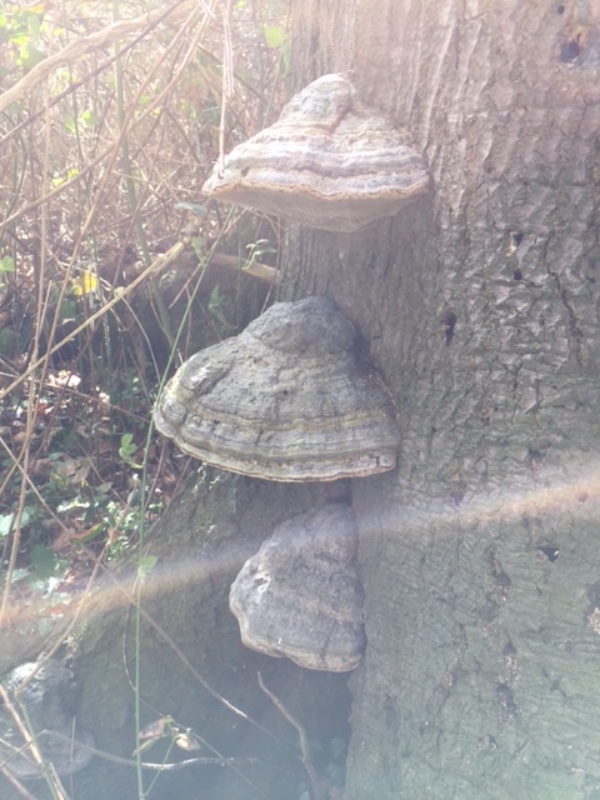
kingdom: Fungi
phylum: Basidiomycota
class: Agaricomycetes
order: Polyporales
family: Polyporaceae
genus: Fomes
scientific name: Fomes fomentarius
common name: tøndersvamp
